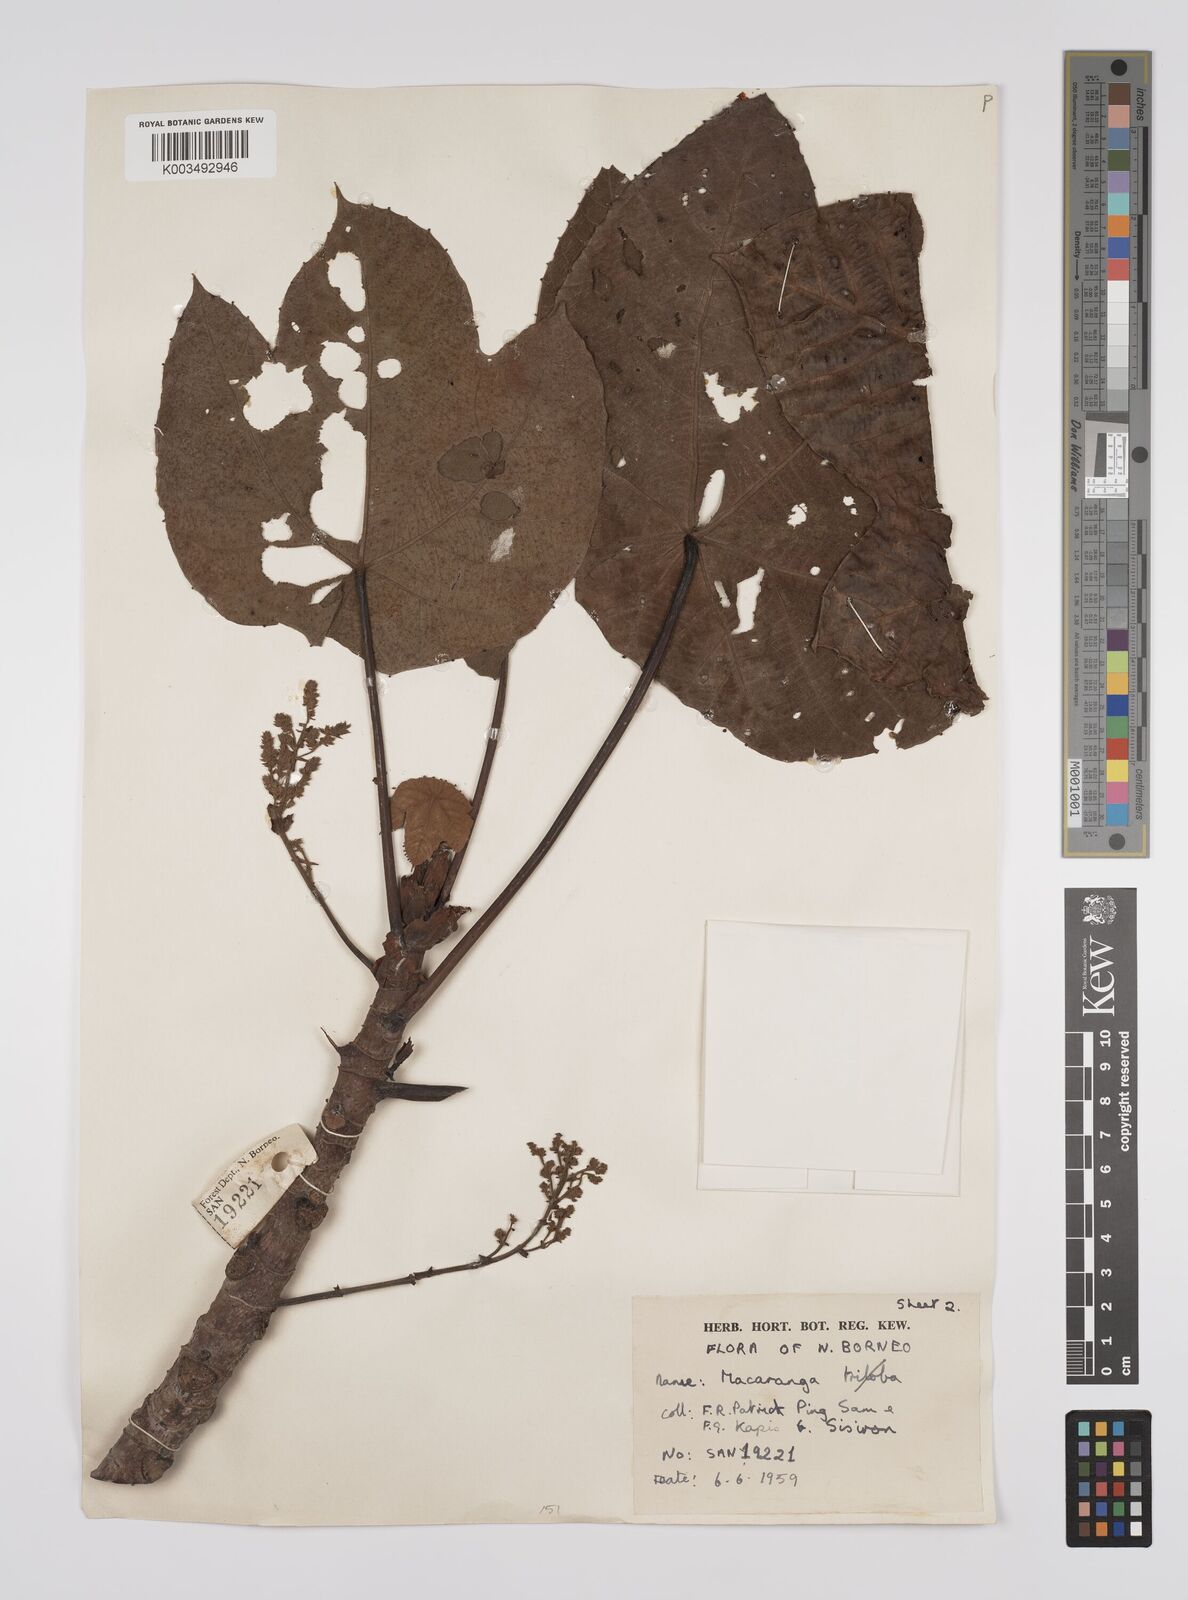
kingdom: Plantae
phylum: Tracheophyta
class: Magnoliopsida
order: Malpighiales
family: Euphorbiaceae
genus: Macaranga
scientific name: Macaranga gigantea
